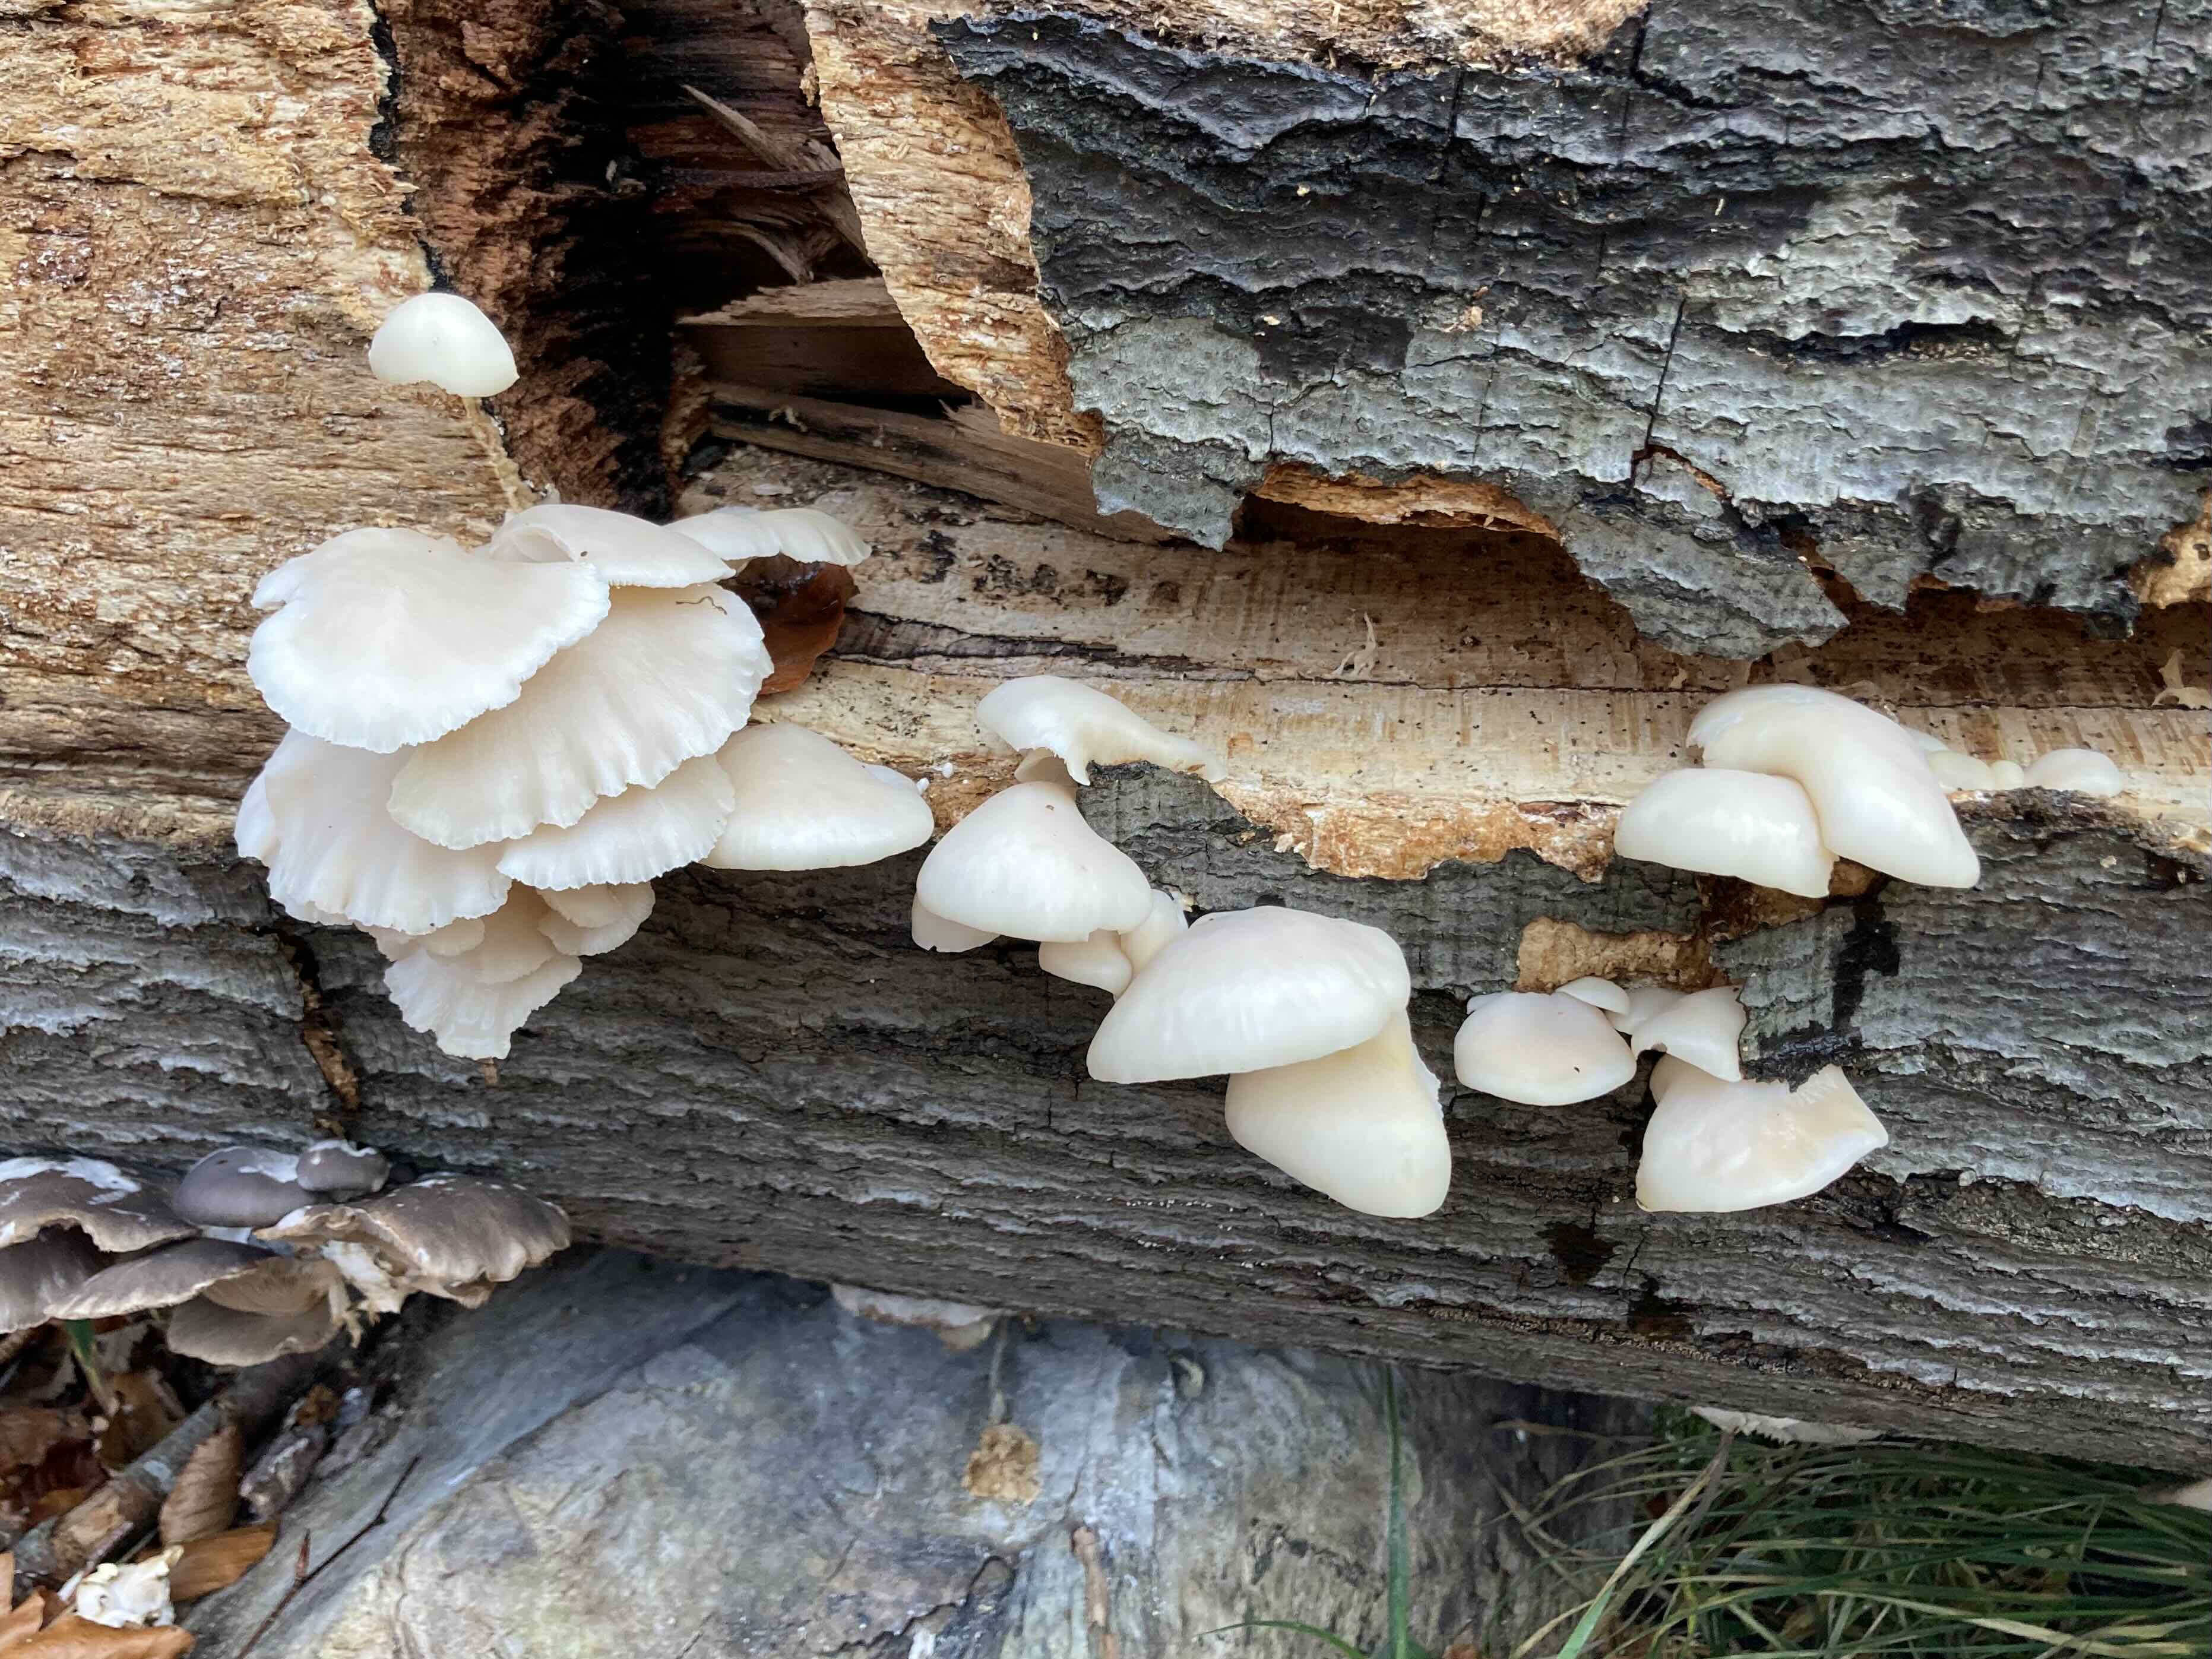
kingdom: Fungi
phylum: Basidiomycota
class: Agaricomycetes
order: Agaricales
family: Pleurotaceae
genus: Pleurotus
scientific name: Pleurotus
